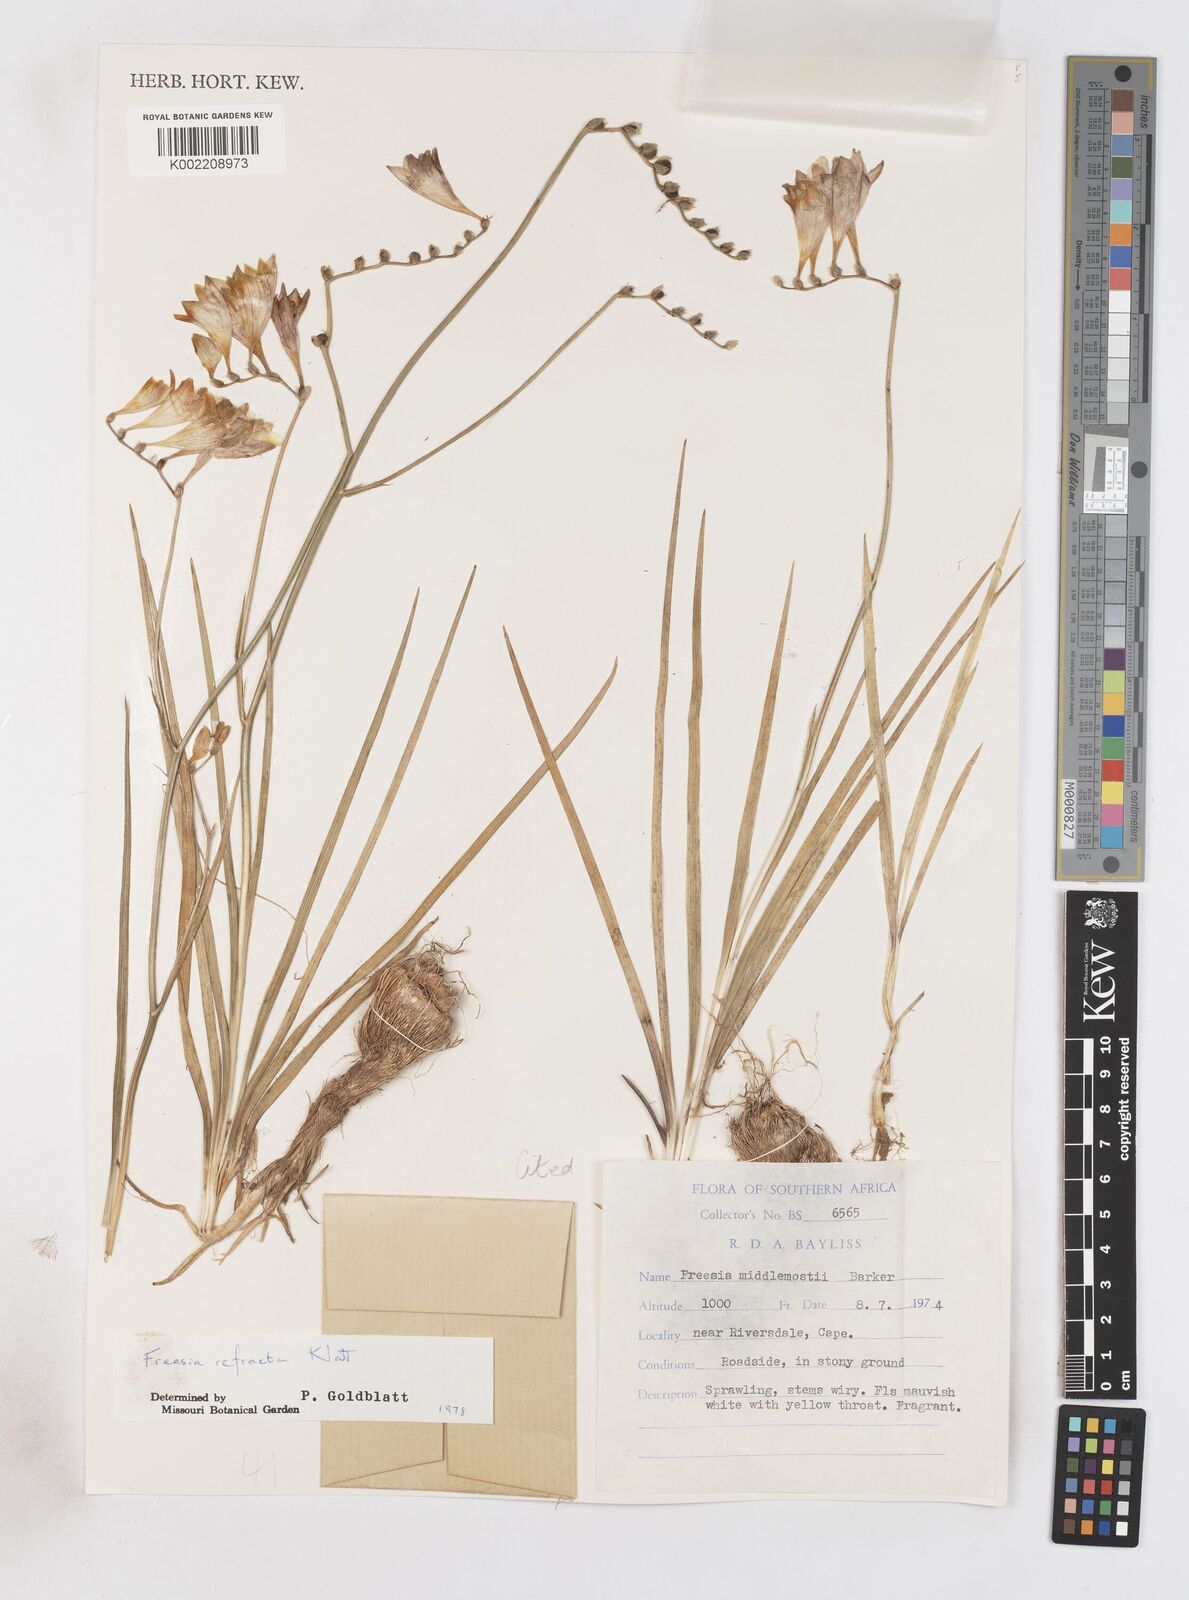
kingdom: Plantae
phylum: Tracheophyta
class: Liliopsida
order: Asparagales
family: Iridaceae
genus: Freesia
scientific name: Freesia refracta
